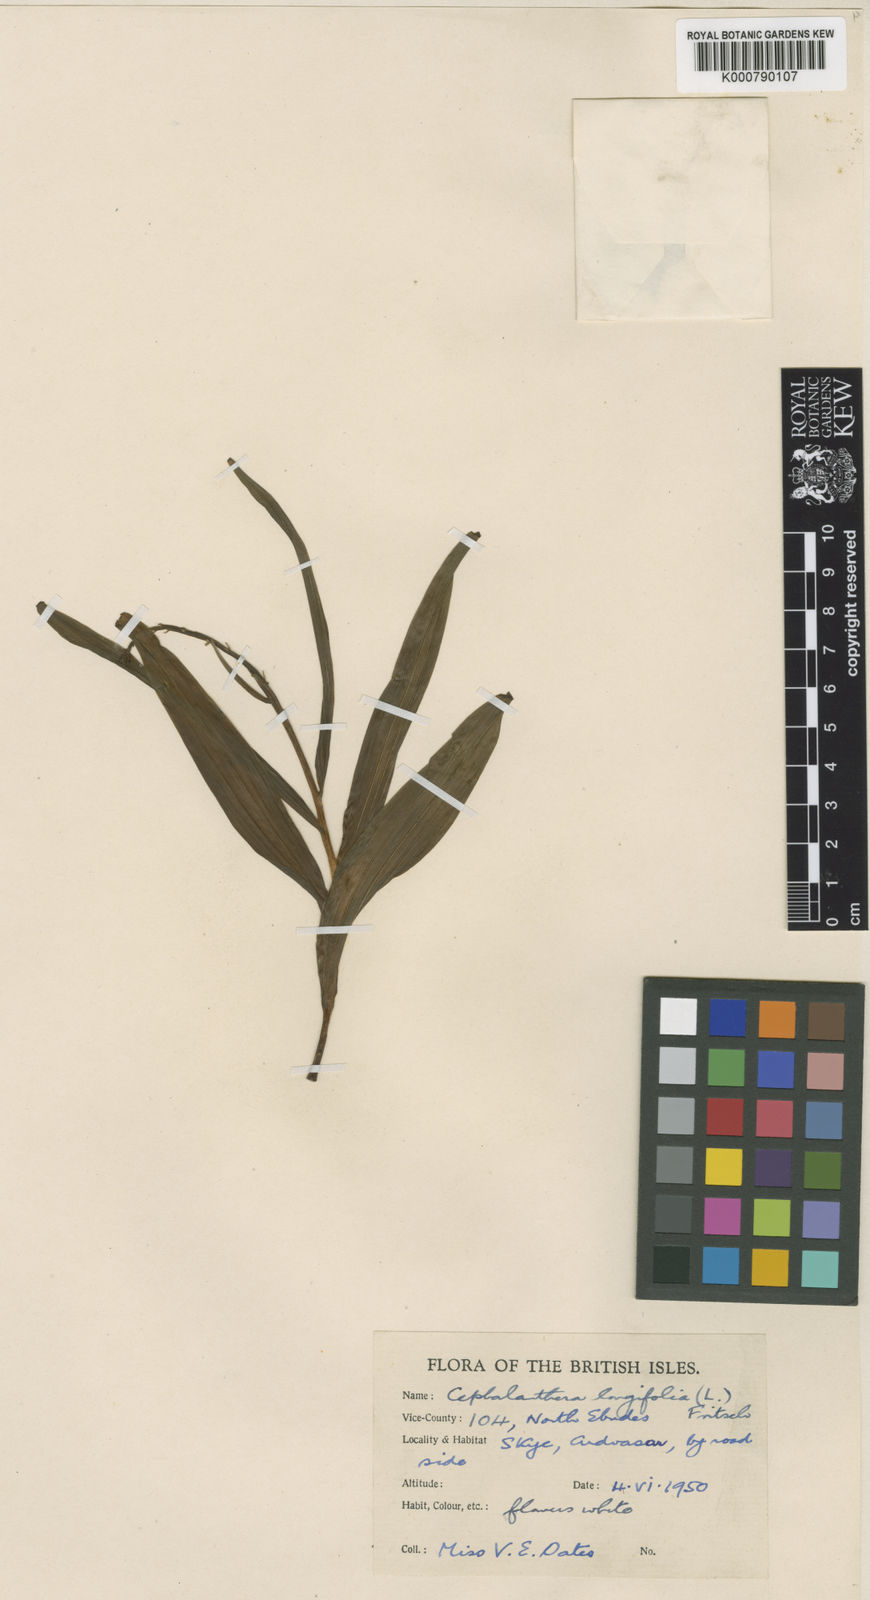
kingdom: Plantae
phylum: Tracheophyta
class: Liliopsida
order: Asparagales
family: Orchidaceae
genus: Cephalanthera
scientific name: Cephalanthera longifolia
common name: Narrow-leaved helleborine
